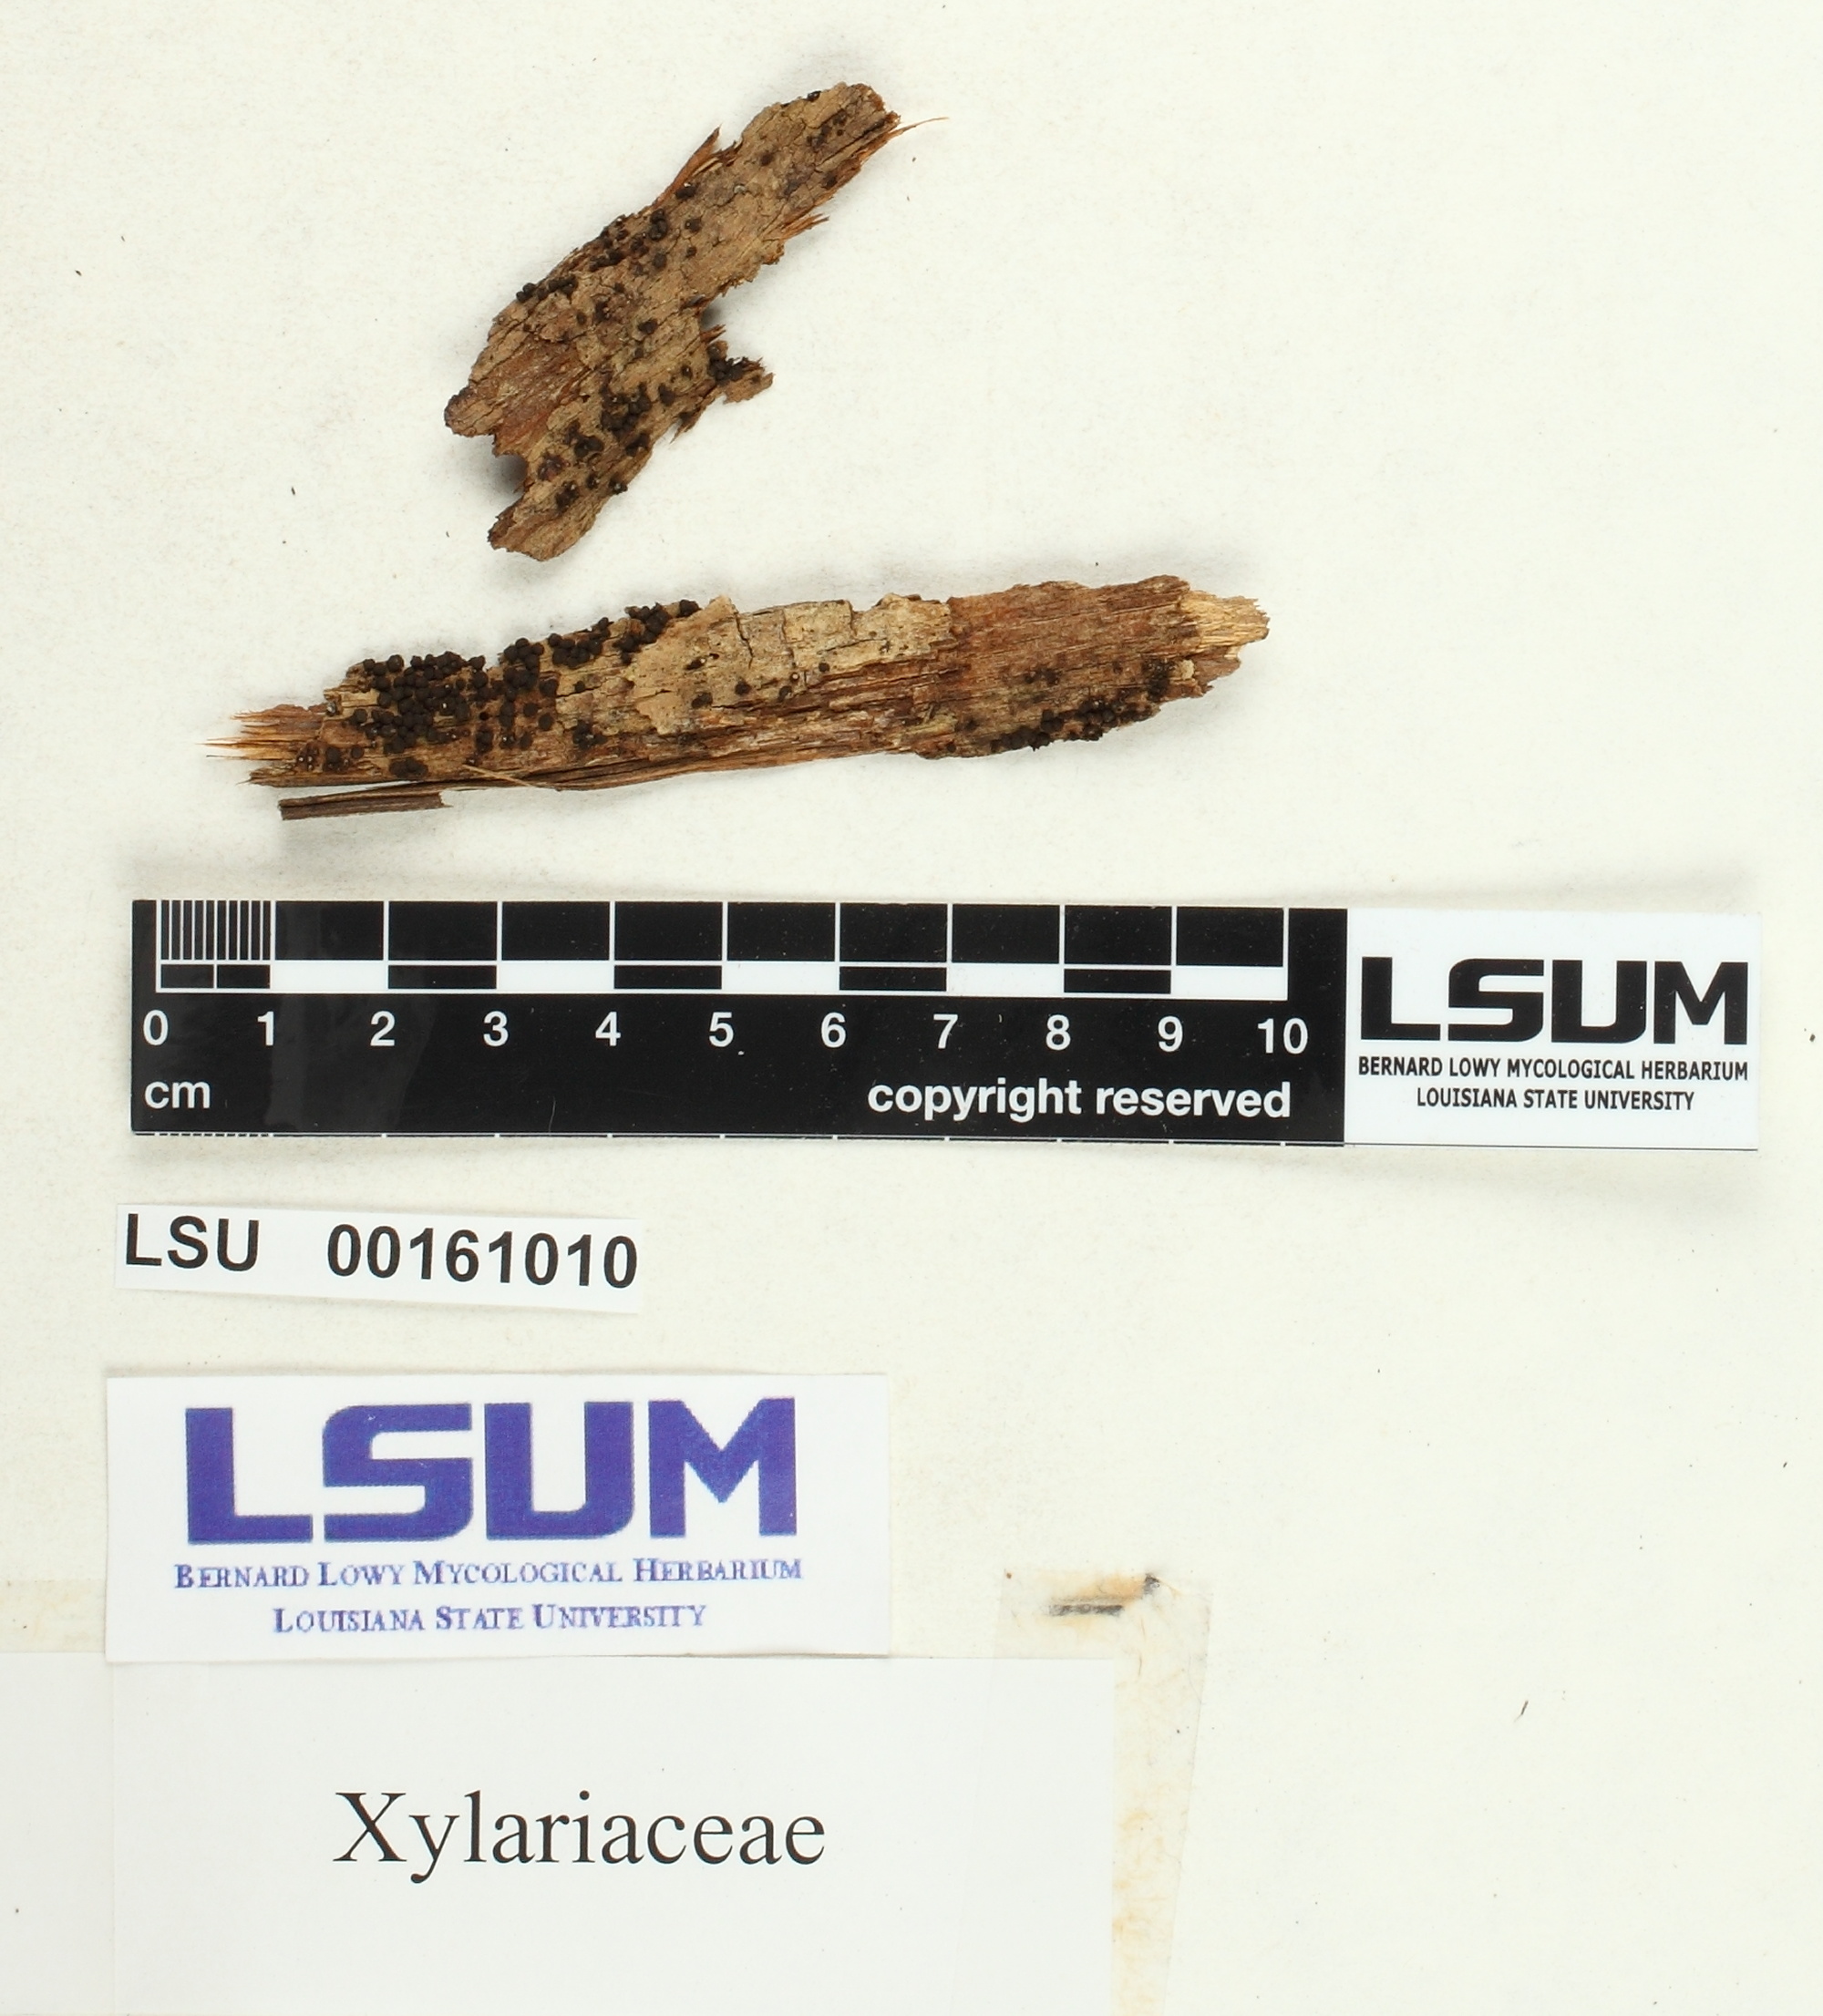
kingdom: Fungi
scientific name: Fungi
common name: Fungi
